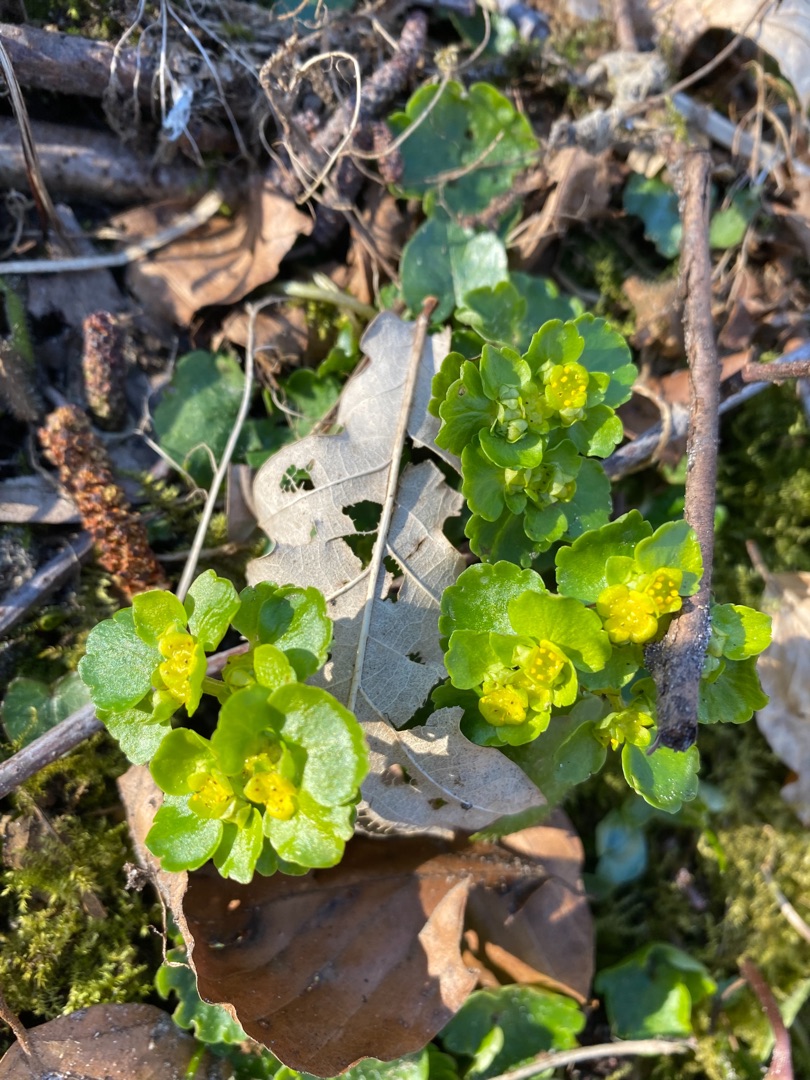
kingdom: Plantae
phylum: Tracheophyta
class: Magnoliopsida
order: Saxifragales
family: Saxifragaceae
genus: Chrysosplenium
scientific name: Chrysosplenium alternifolium
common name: Almindelig milturt
